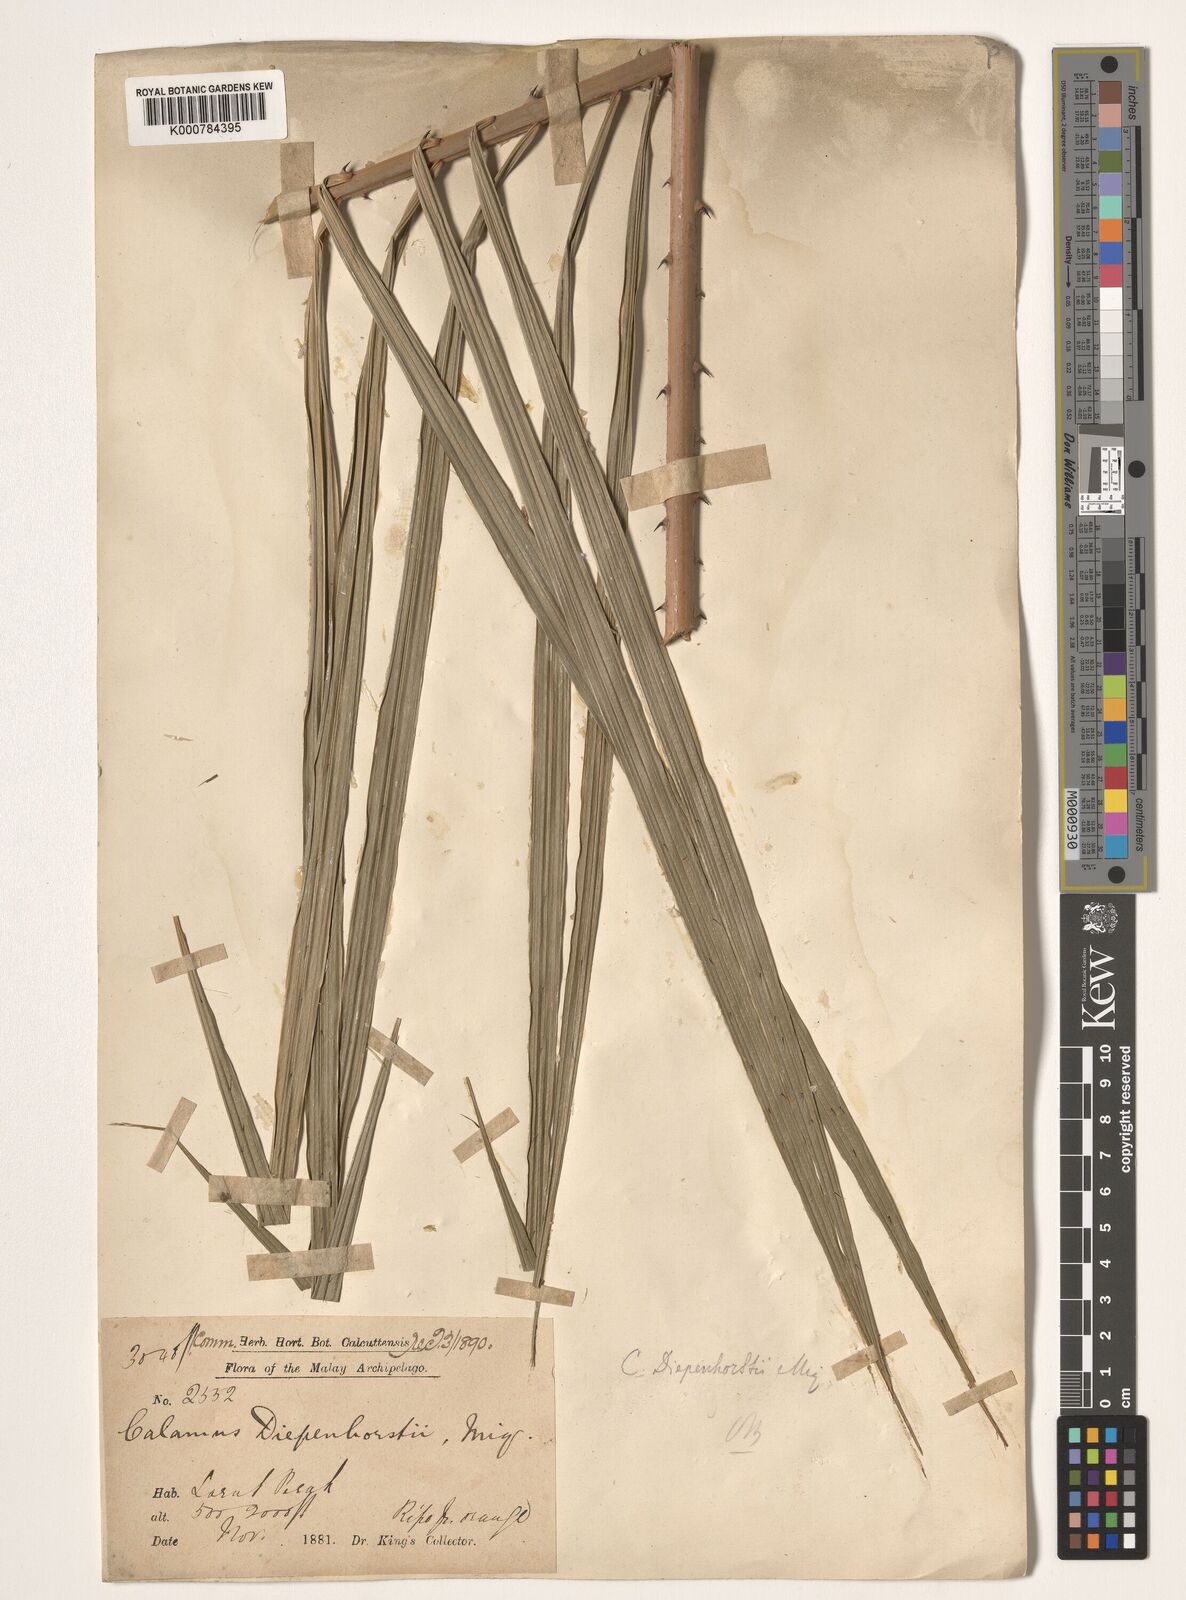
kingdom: Plantae
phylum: Tracheophyta
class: Liliopsida
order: Arecales
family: Arecaceae
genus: Calamus
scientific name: Calamus diepenhorstii
